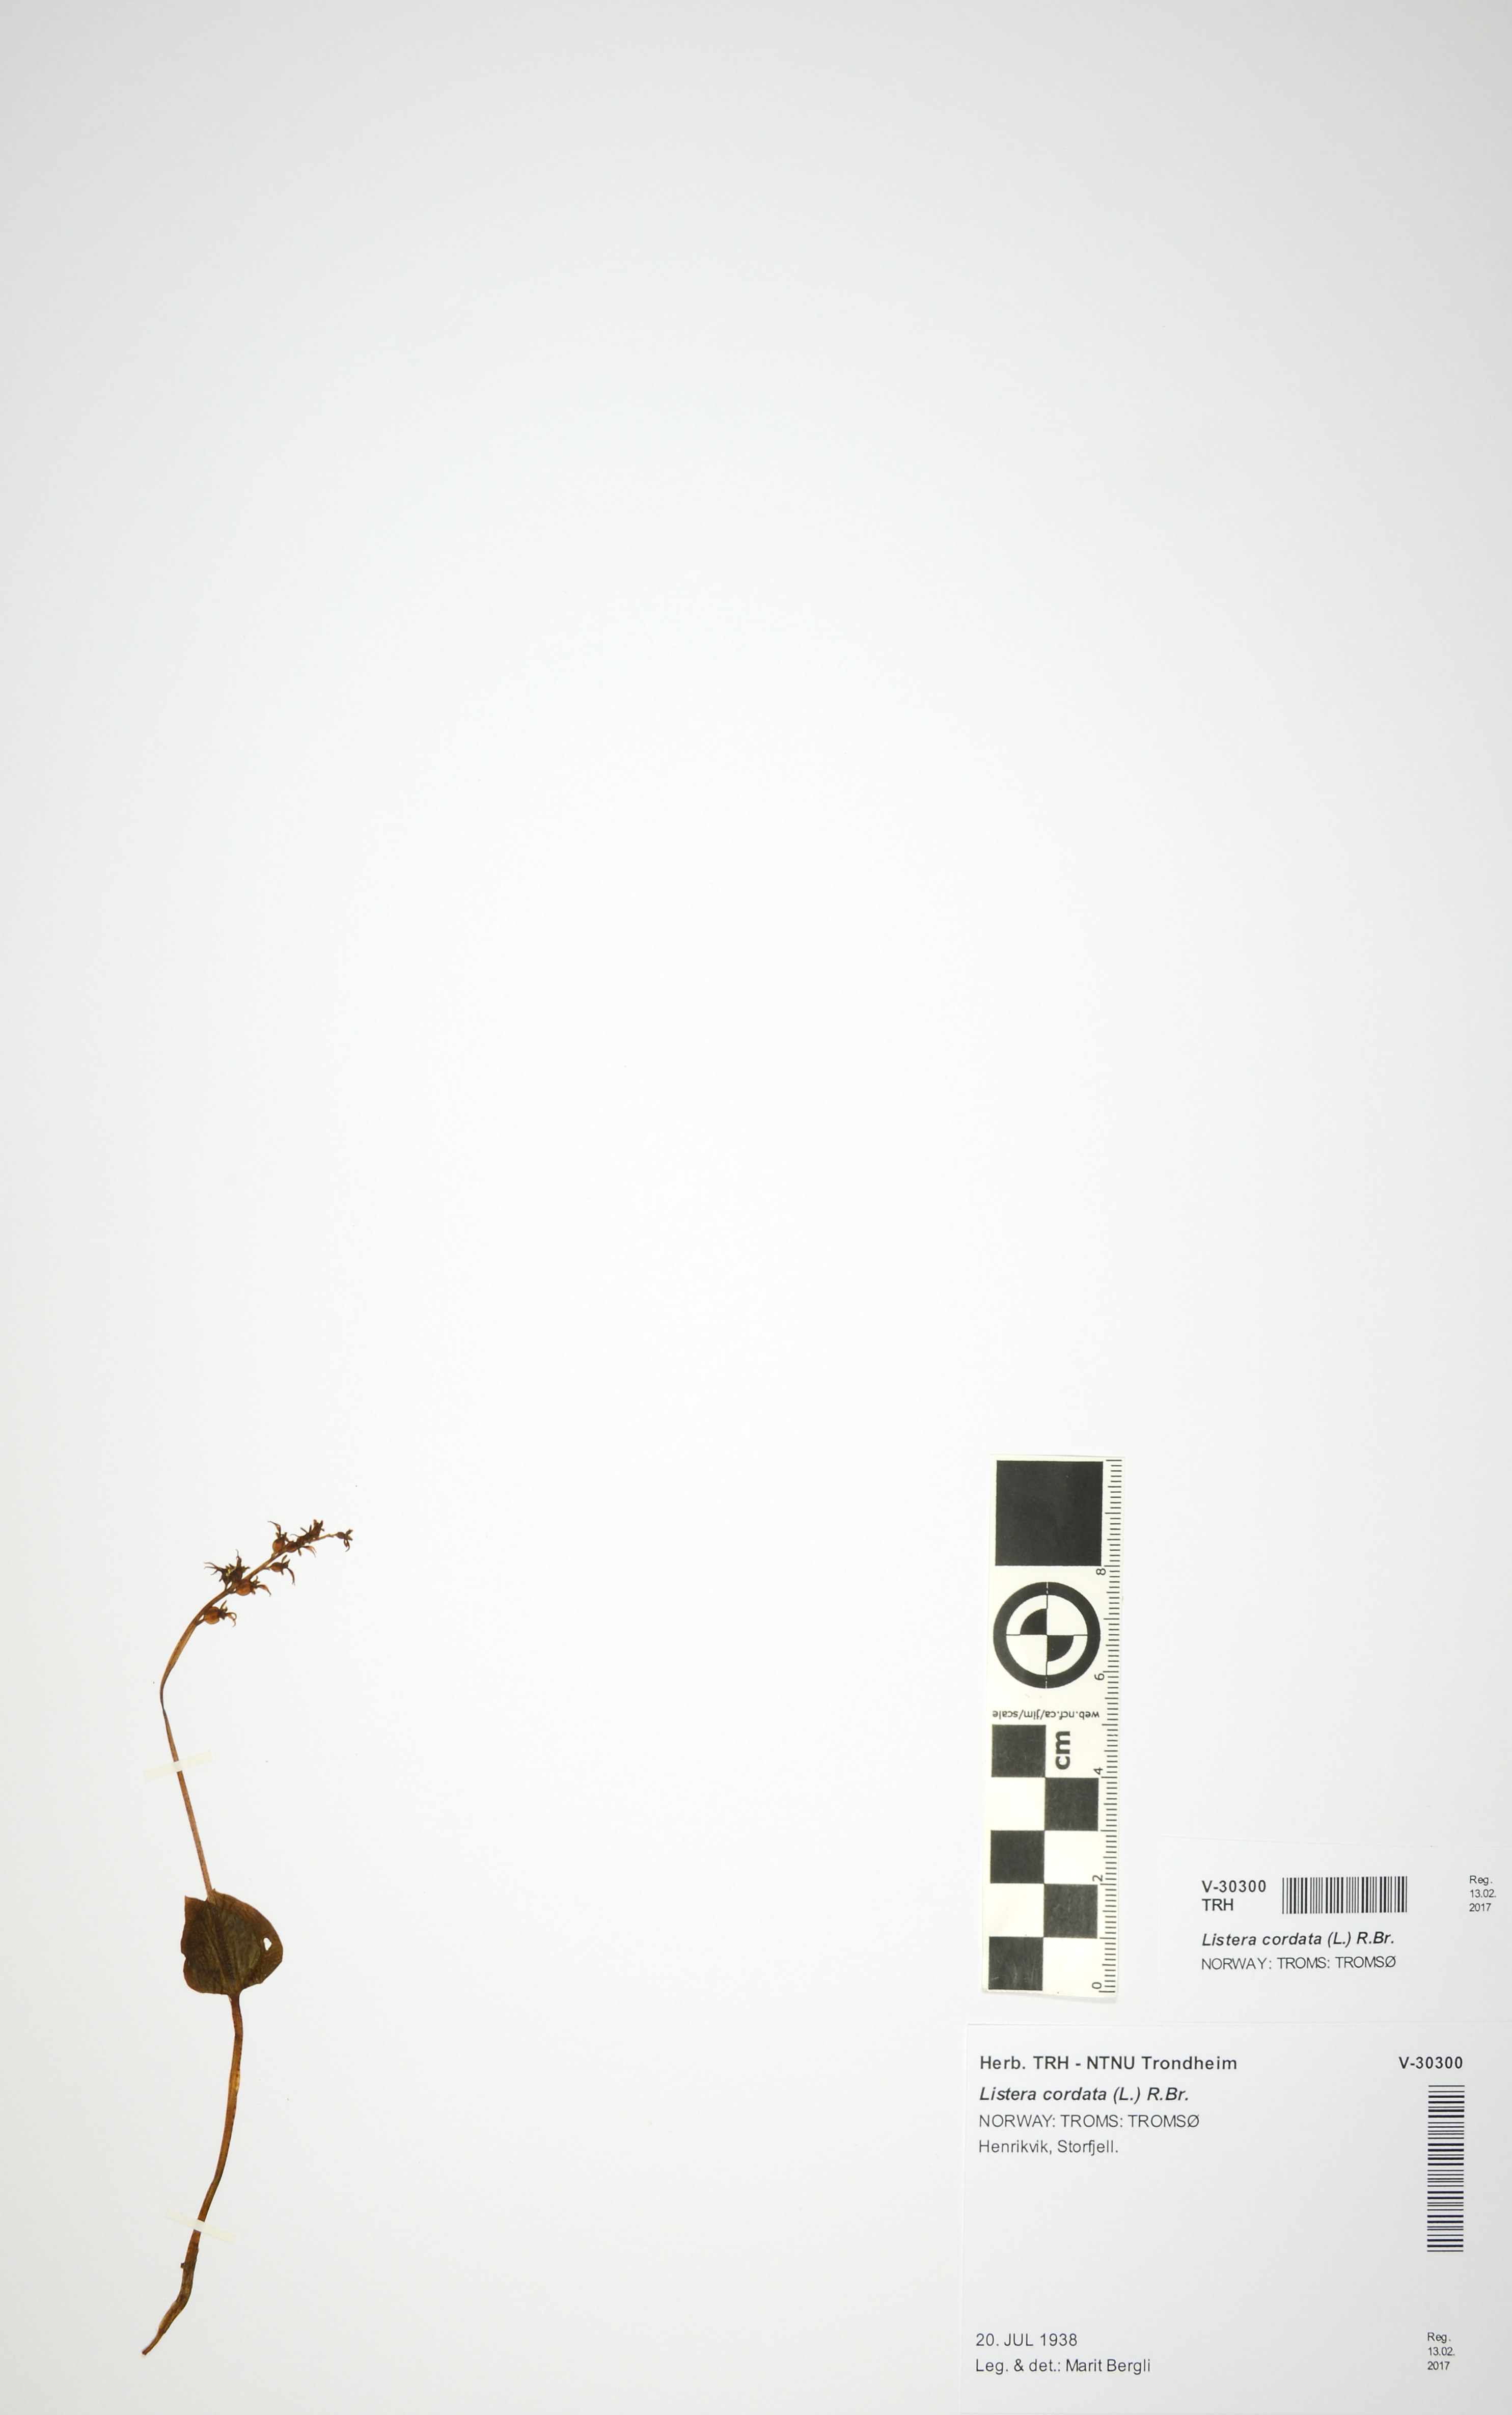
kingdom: Plantae
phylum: Tracheophyta
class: Liliopsida
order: Asparagales
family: Orchidaceae
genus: Neottia
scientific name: Neottia cordata
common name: Lesser twayblade
